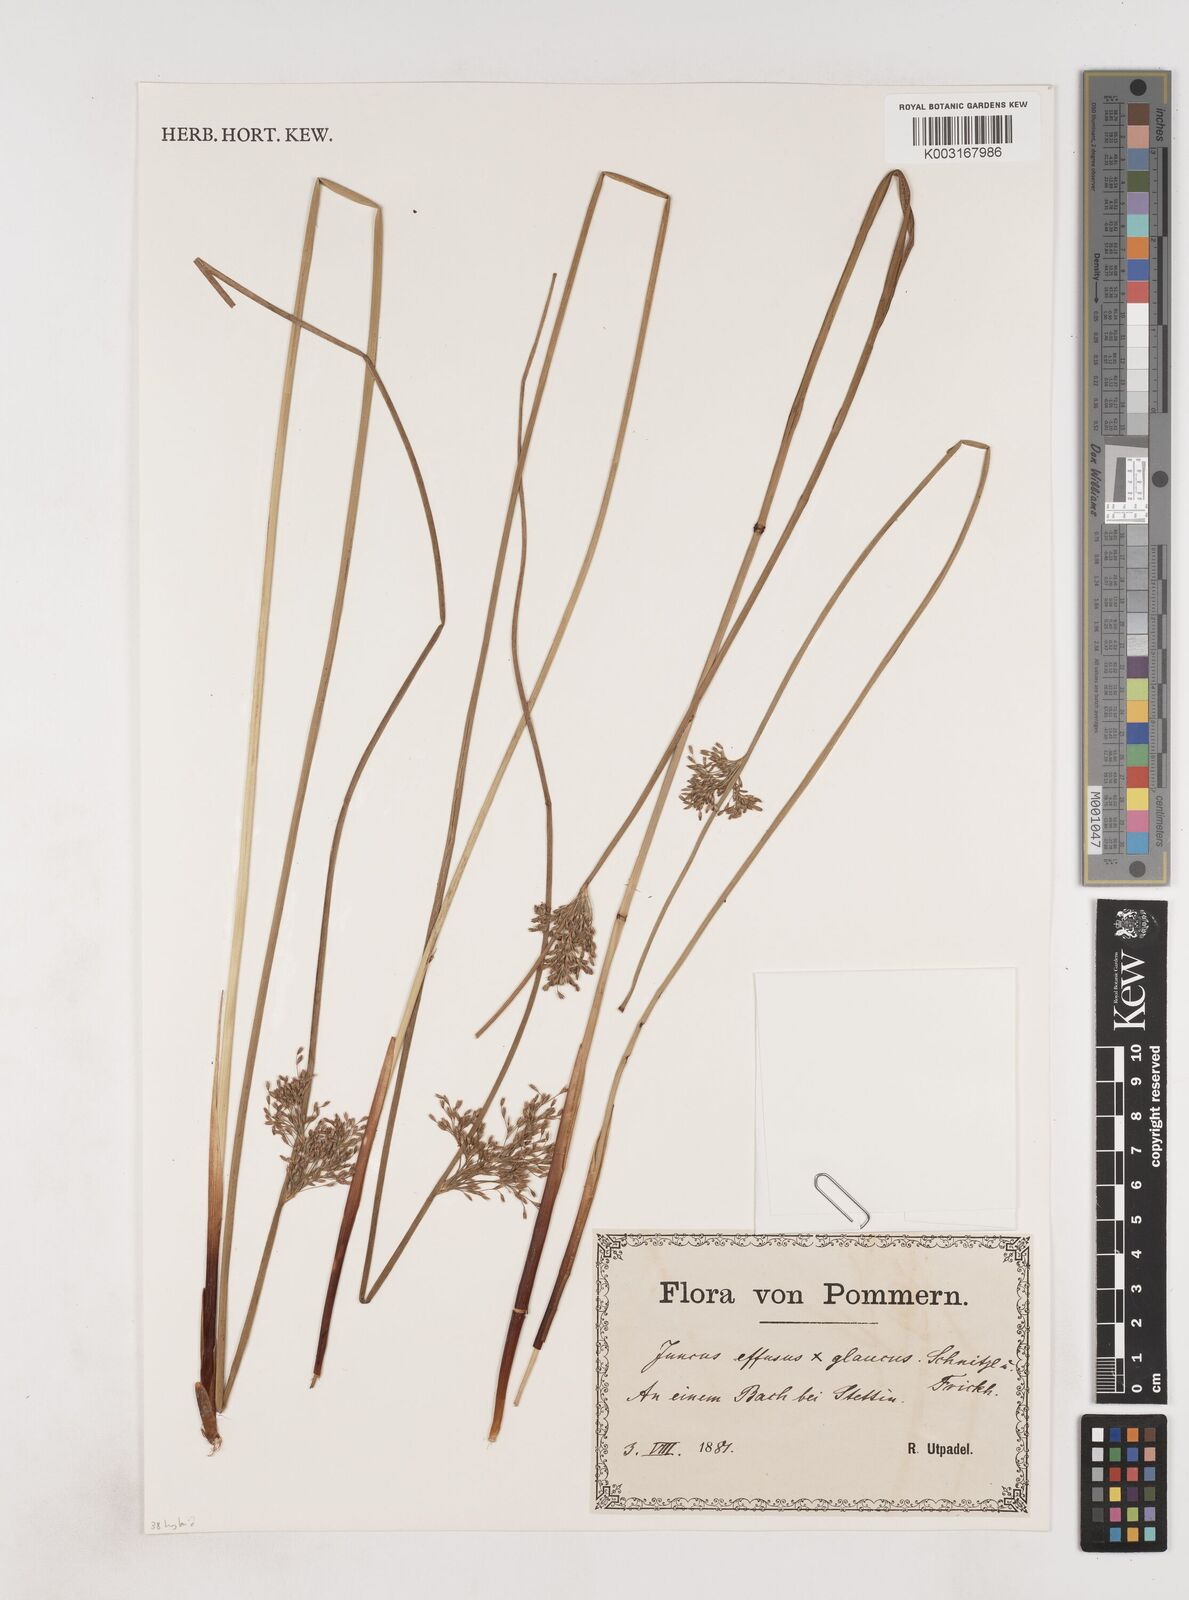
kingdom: Plantae
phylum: Tracheophyta
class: Liliopsida
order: Poales
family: Juncaceae
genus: Juncus
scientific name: Juncus effusus
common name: Soft rush
